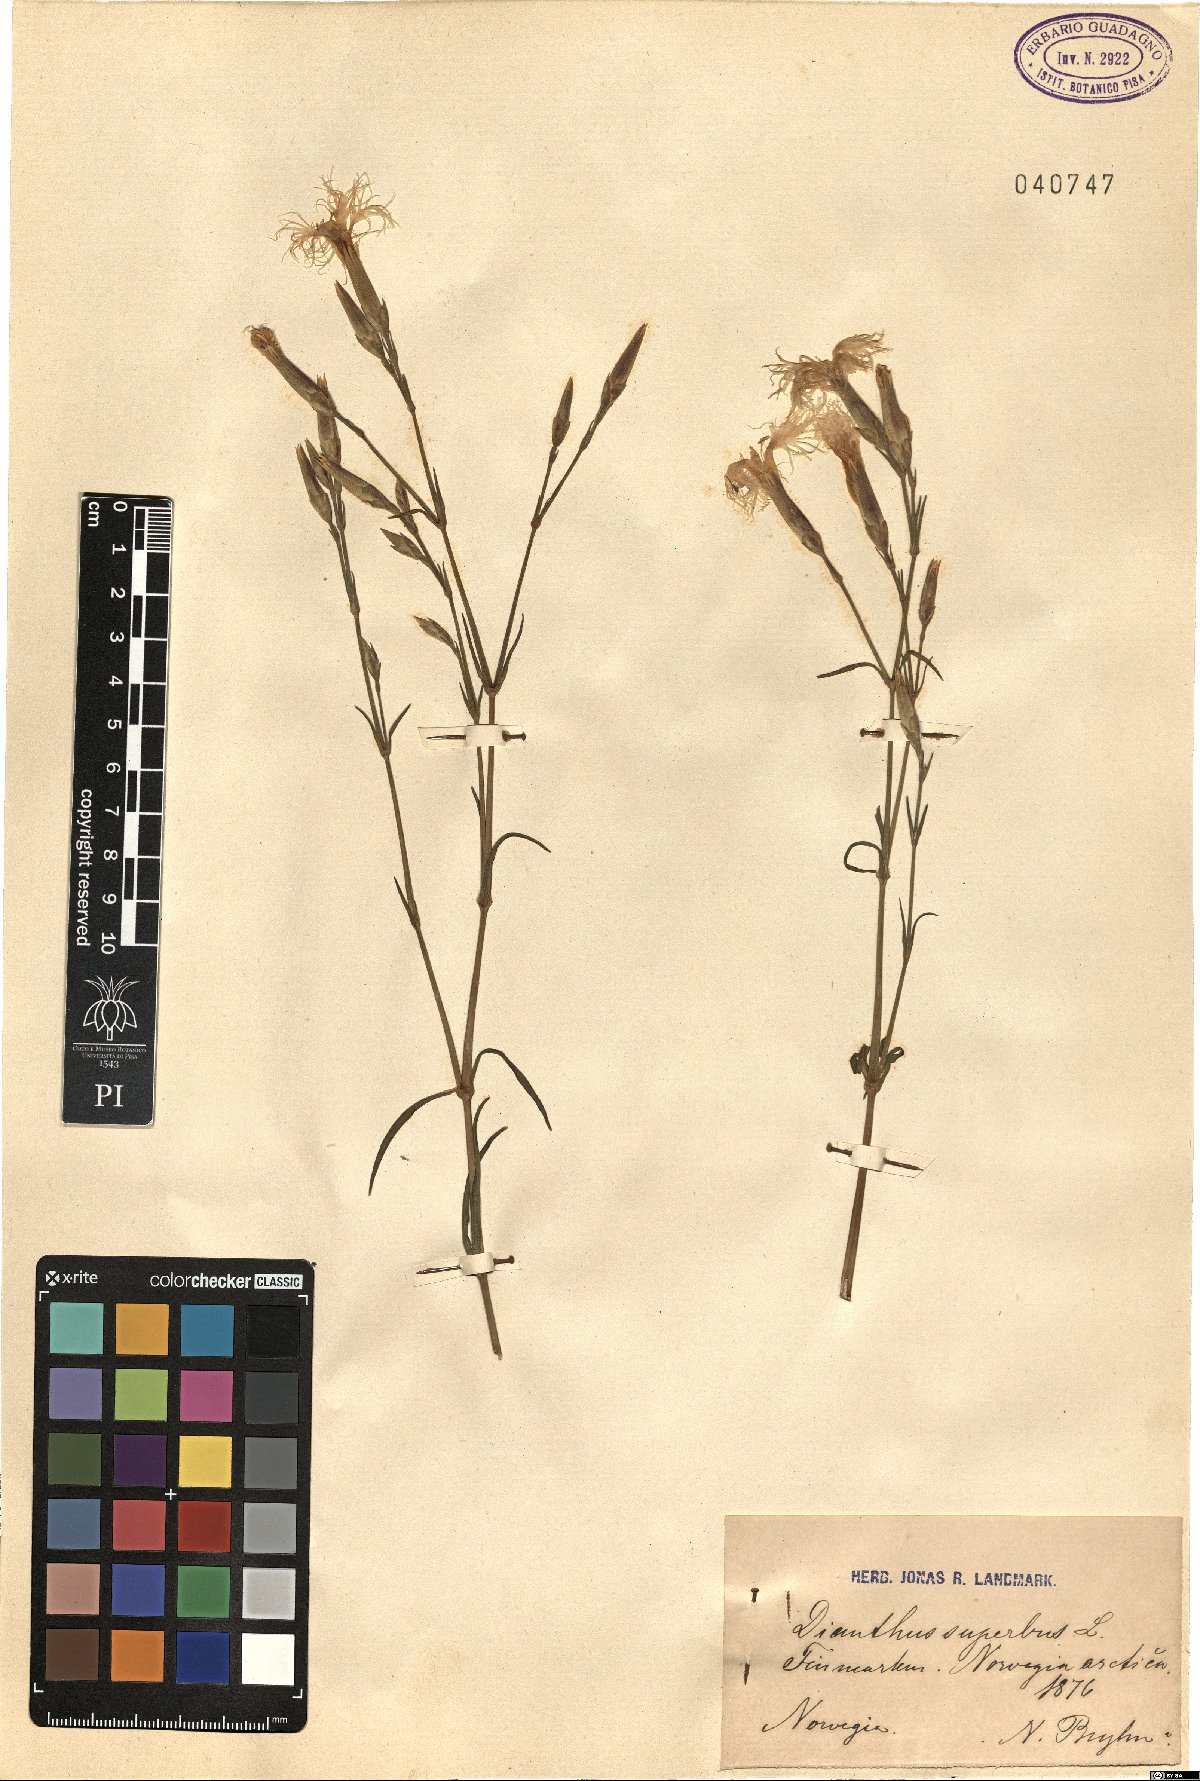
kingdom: Plantae
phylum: Tracheophyta
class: Magnoliopsida
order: Caryophyllales
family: Caryophyllaceae
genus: Dianthus
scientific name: Dianthus superbus
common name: Fringed pink
